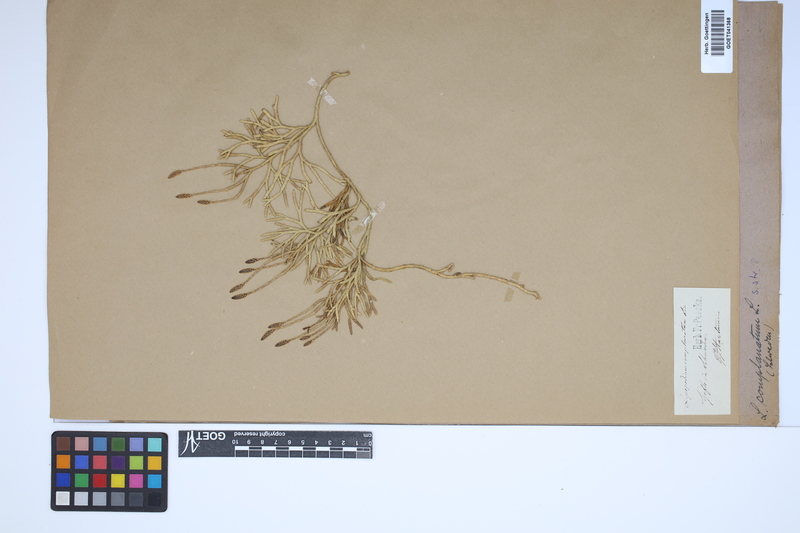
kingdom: Plantae
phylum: Tracheophyta
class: Lycopodiopsida
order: Lycopodiales
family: Lycopodiaceae
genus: Diphasiastrum
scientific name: Diphasiastrum complanatum
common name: Northern running-pine
